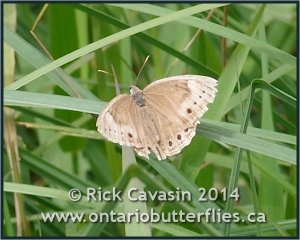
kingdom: Animalia
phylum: Arthropoda
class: Insecta
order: Lepidoptera
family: Nymphalidae
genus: Lethe
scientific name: Lethe eurydice
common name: Eyed Brown
